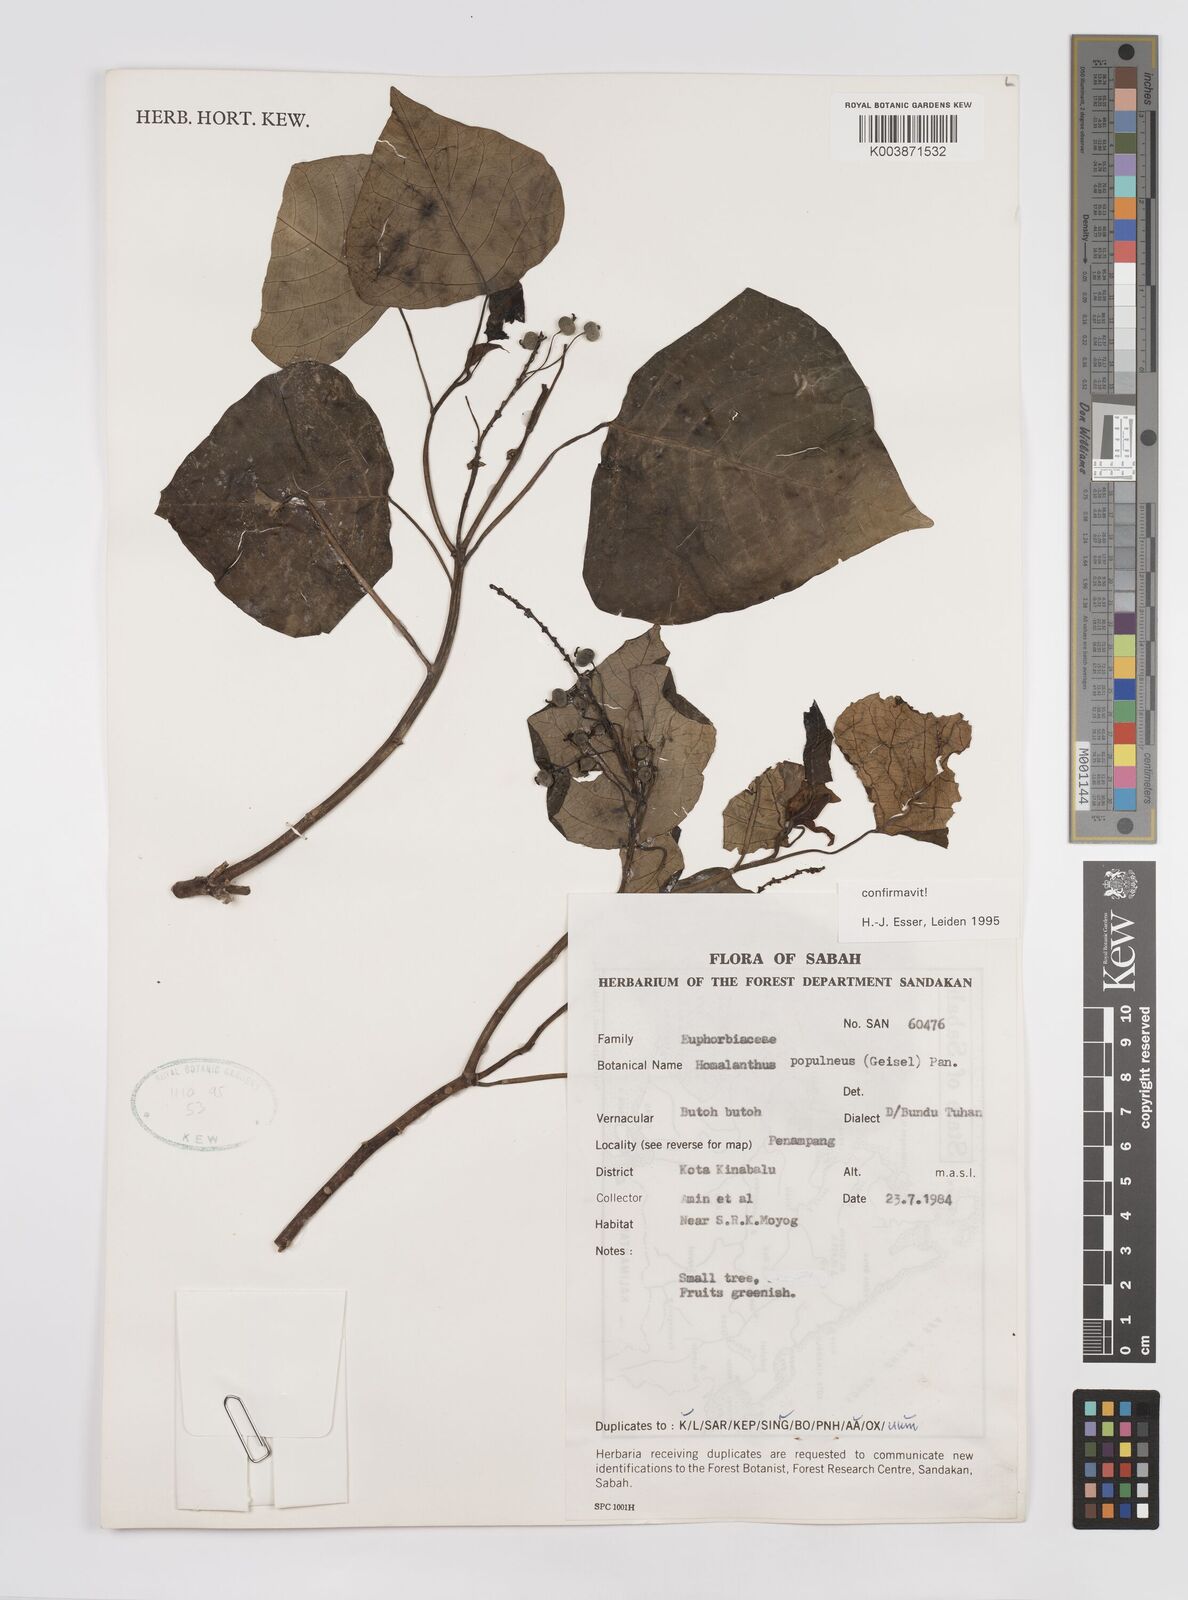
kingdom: Plantae
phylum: Tracheophyta
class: Magnoliopsida
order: Malpighiales
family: Euphorbiaceae
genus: Homalanthus
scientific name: Homalanthus populneus
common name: Spurge
